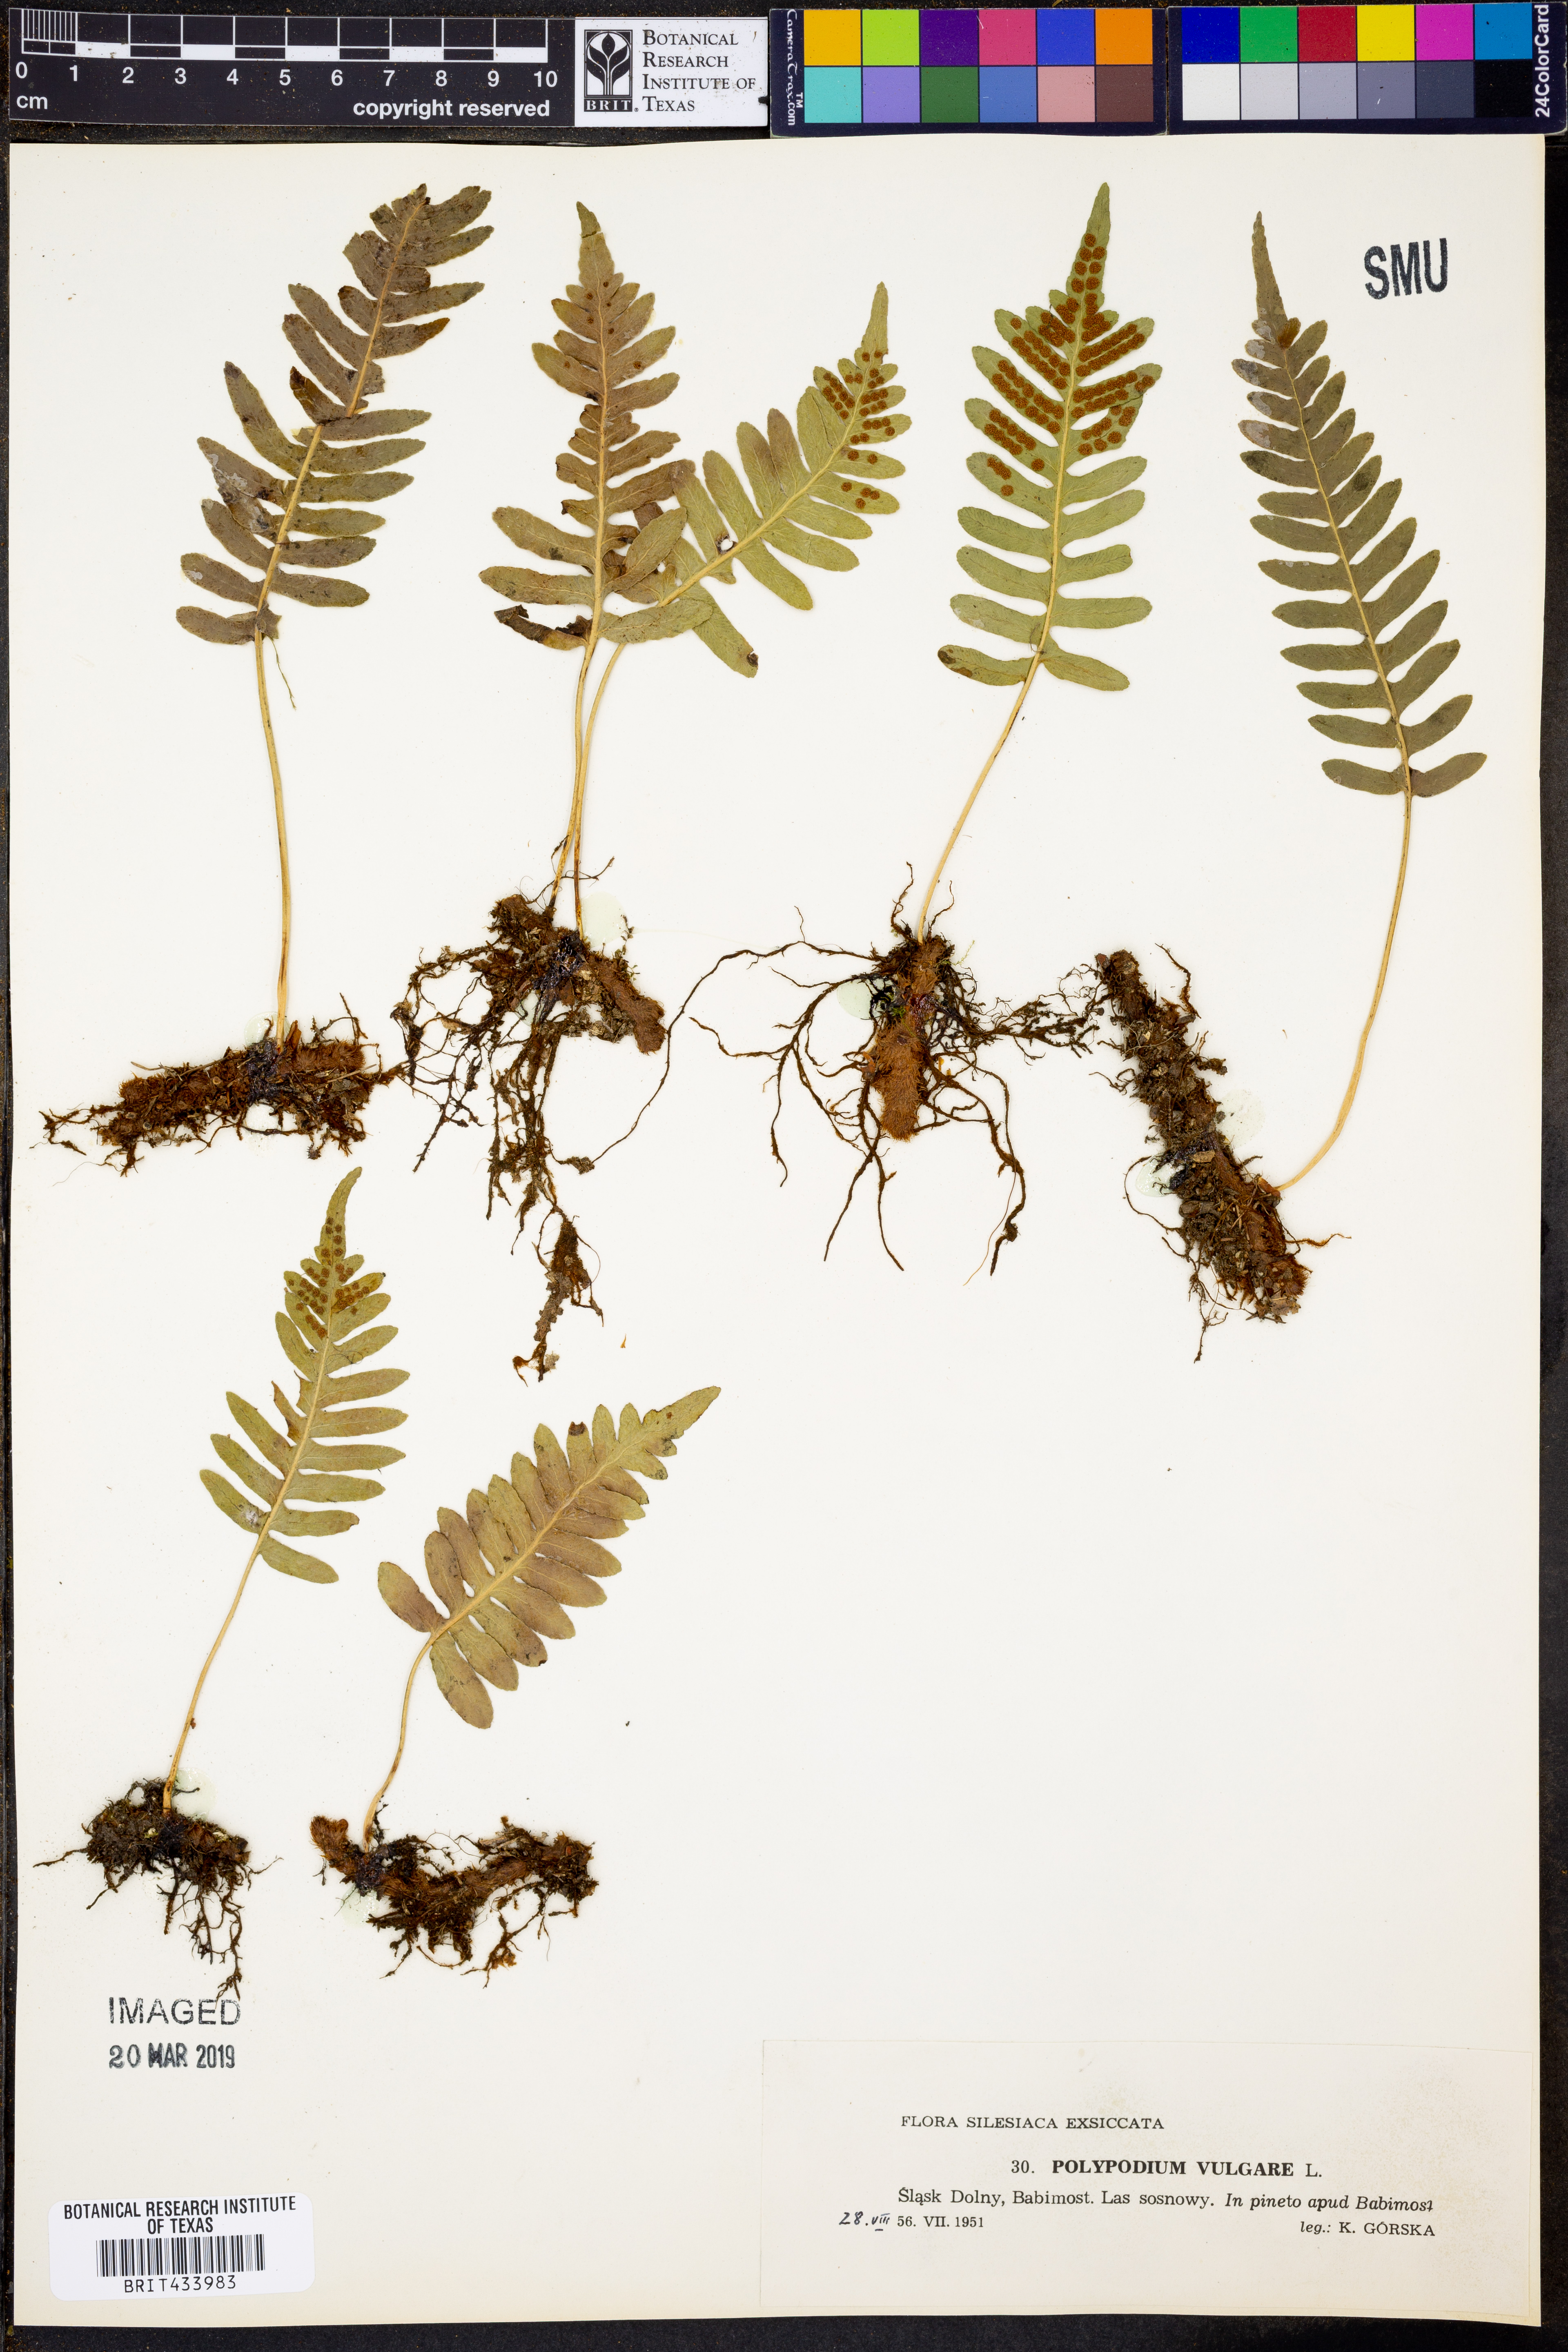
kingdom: Plantae
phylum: Tracheophyta
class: Polypodiopsida
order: Polypodiales
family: Polypodiaceae
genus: Polypodium
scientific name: Polypodium vulgare
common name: Common polypody
